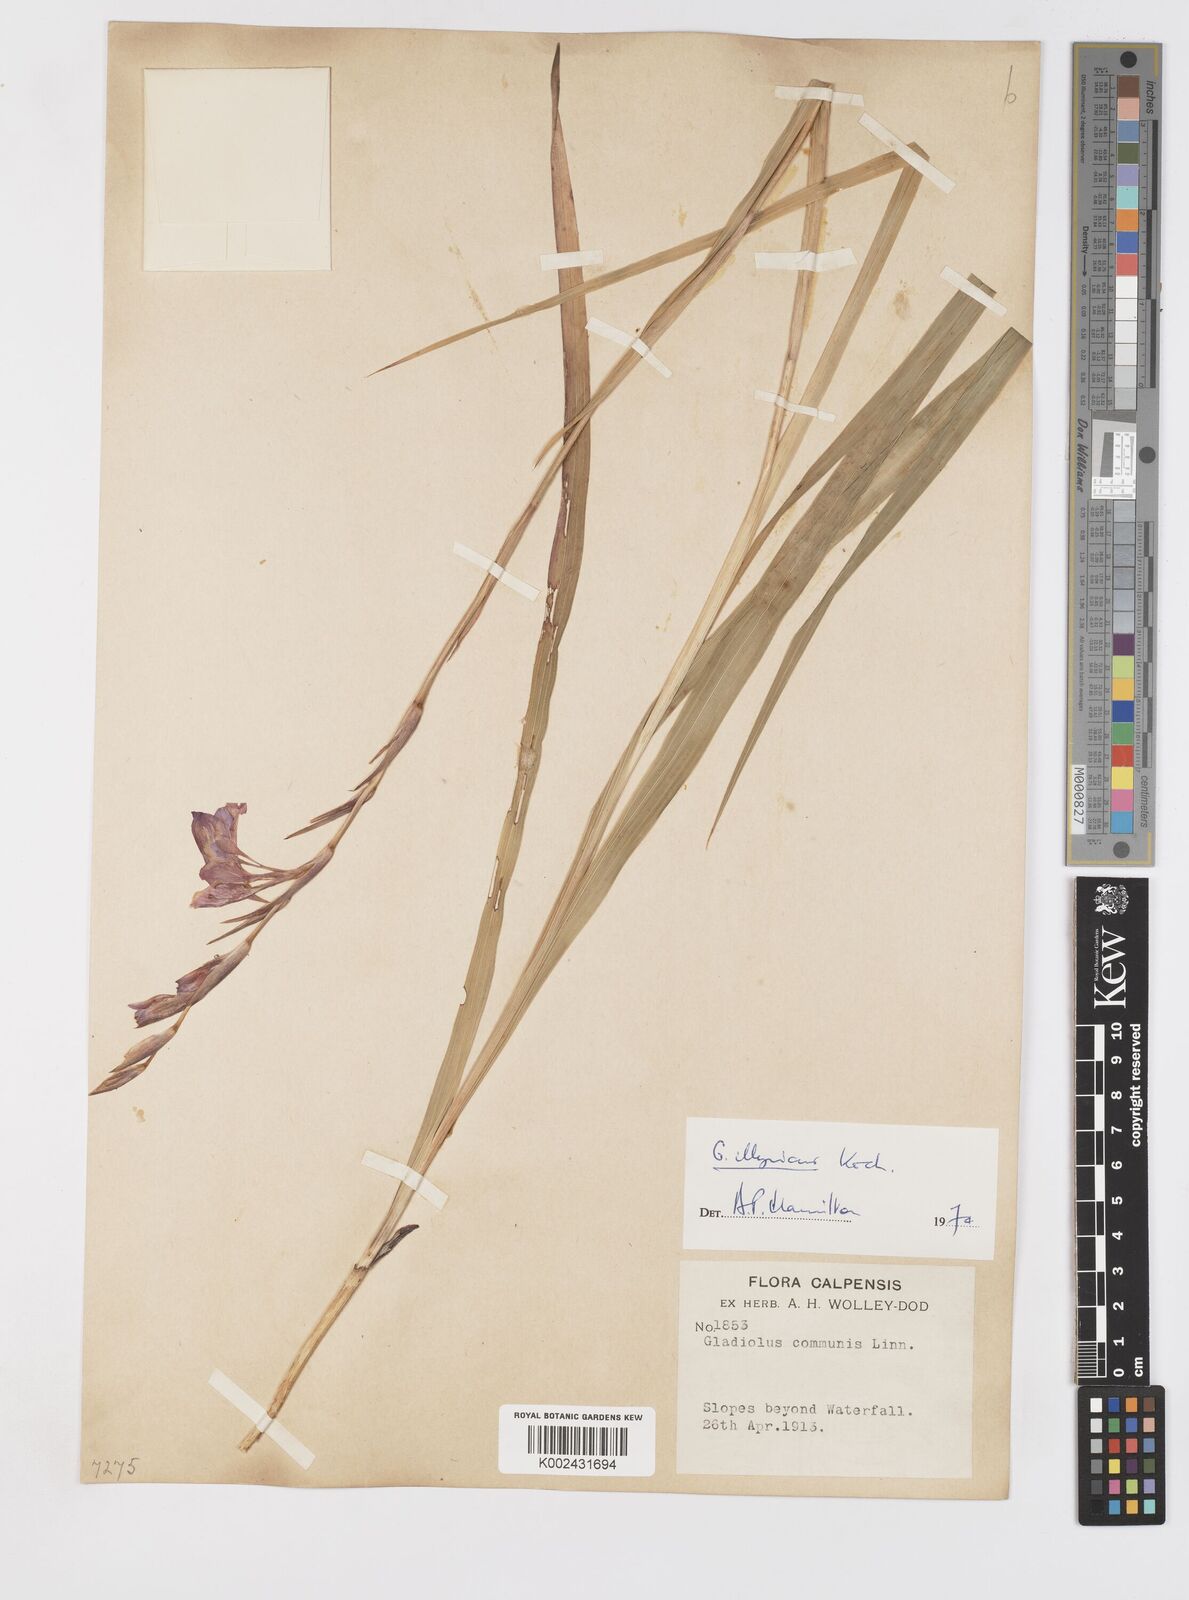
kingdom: Plantae
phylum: Tracheophyta
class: Liliopsida
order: Asparagales
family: Iridaceae
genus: Gladiolus
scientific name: Gladiolus illyricus
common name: Wild gladiolus
